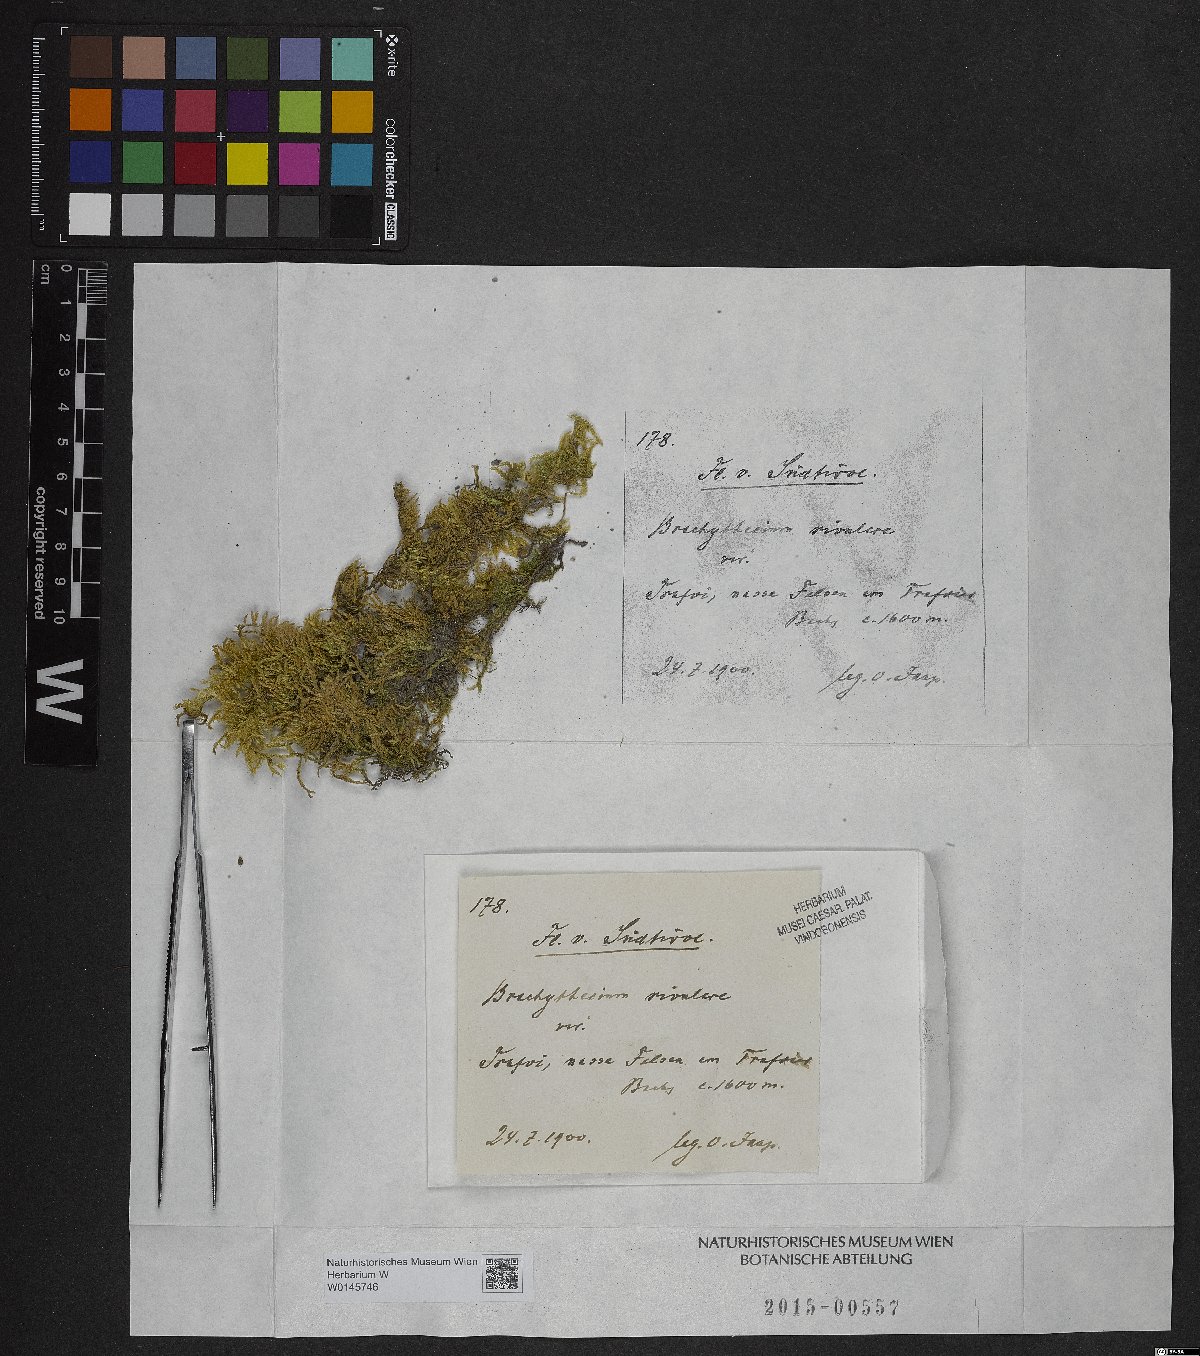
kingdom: Plantae
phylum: Bryophyta
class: Bryopsida
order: Hypnales
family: Brachytheciaceae
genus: Brachythecium
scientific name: Brachythecium rivulare
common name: River ragged moss
